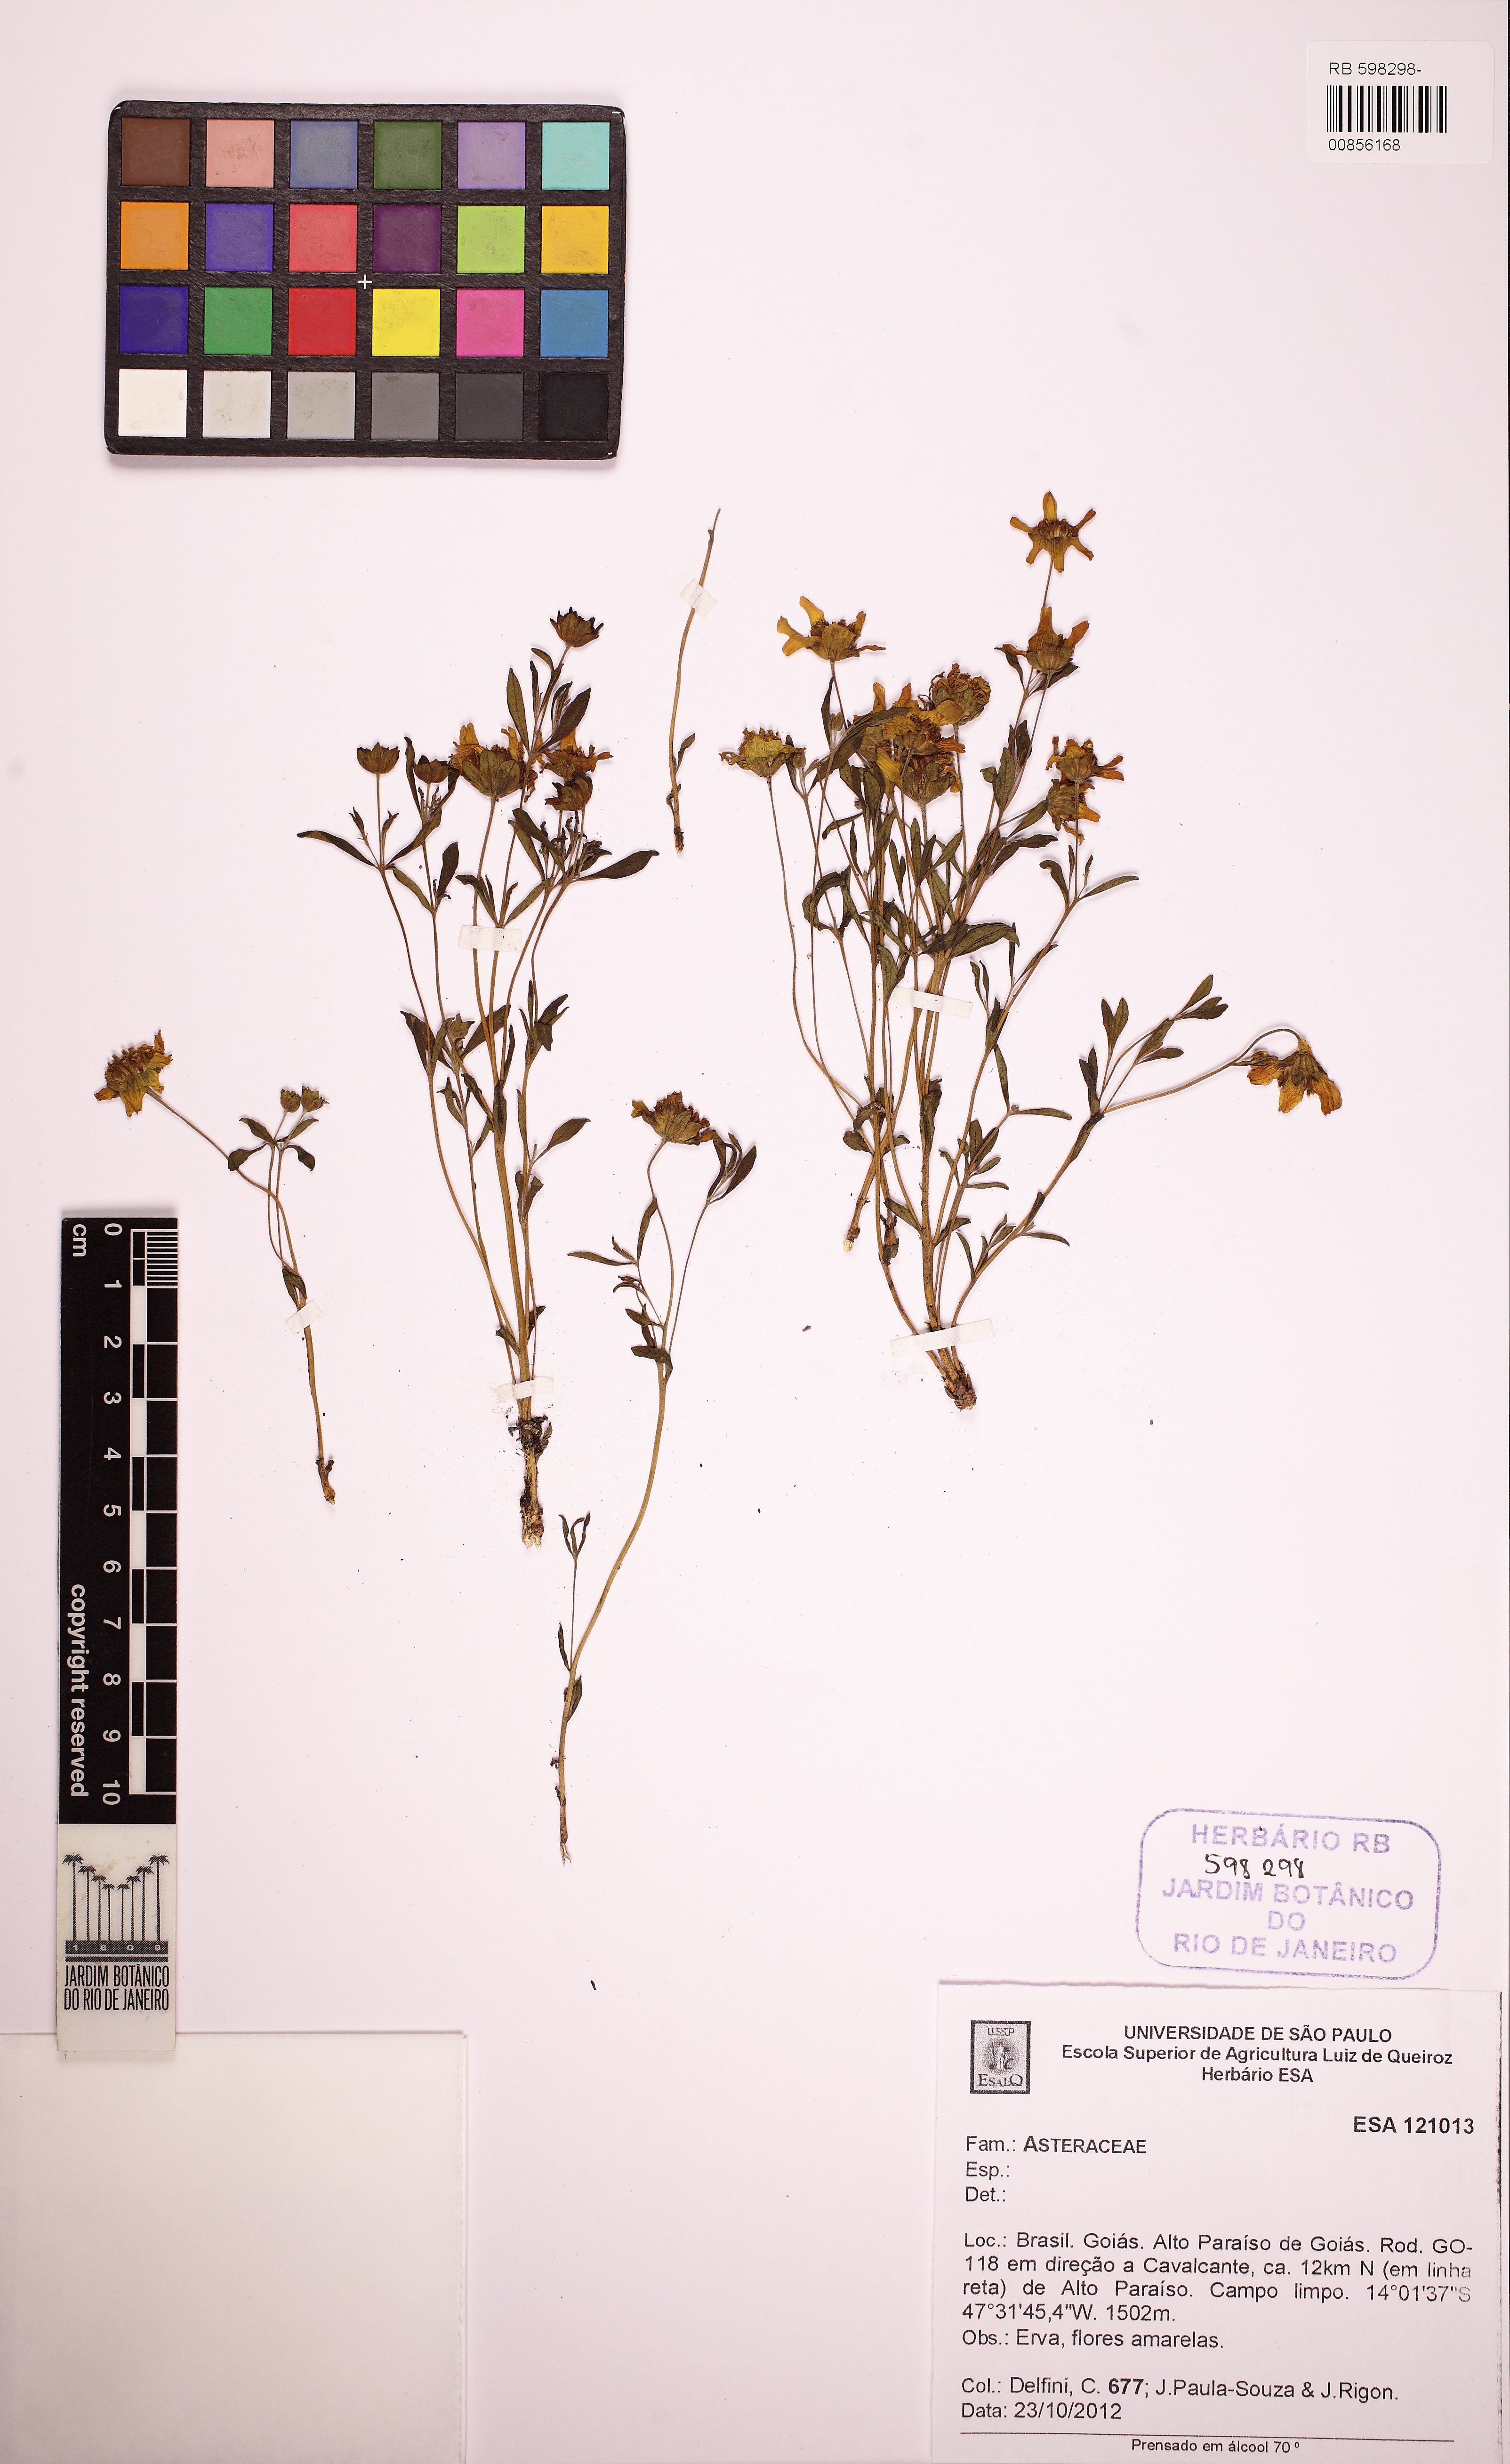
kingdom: Plantae
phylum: Tracheophyta
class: Magnoliopsida
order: Asterales
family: Asteraceae
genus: Wedelia
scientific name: Wedelia
